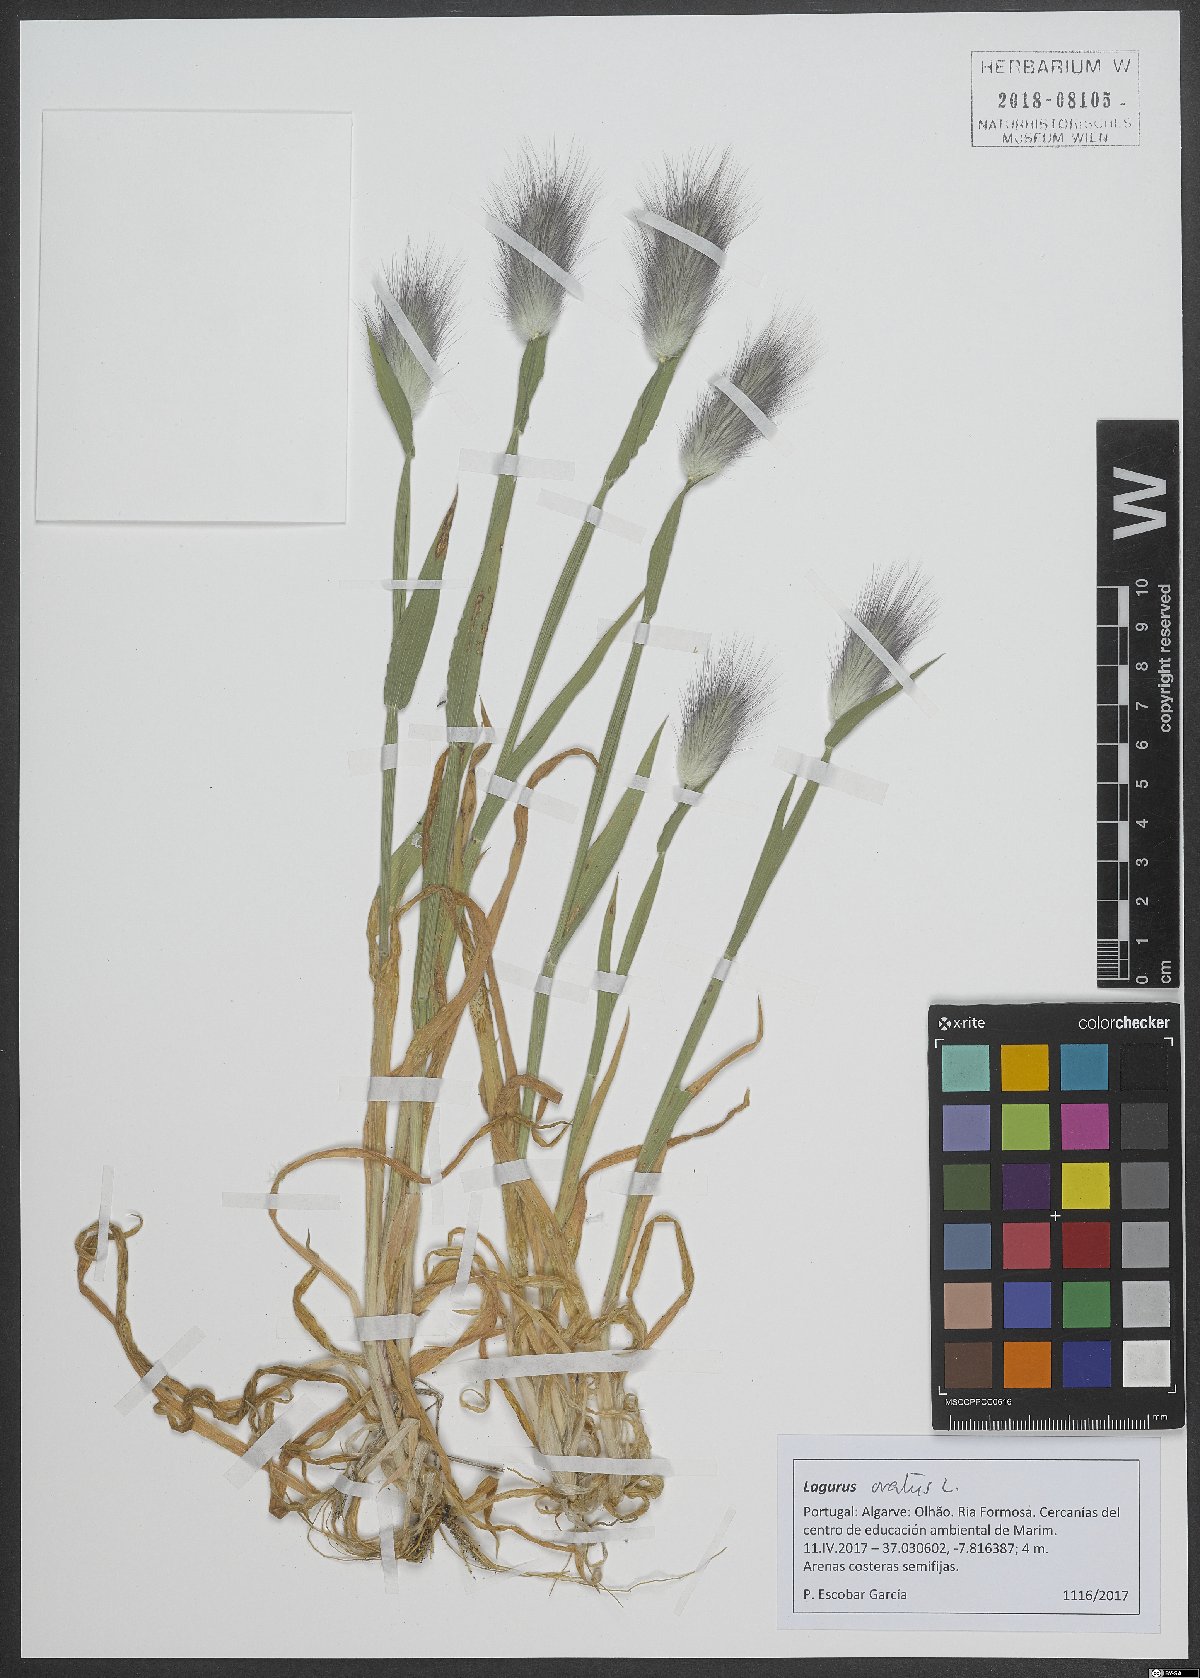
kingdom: Plantae
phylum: Tracheophyta
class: Liliopsida
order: Poales
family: Poaceae
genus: Lagurus
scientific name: Lagurus ovatus
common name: Hare's-tail
